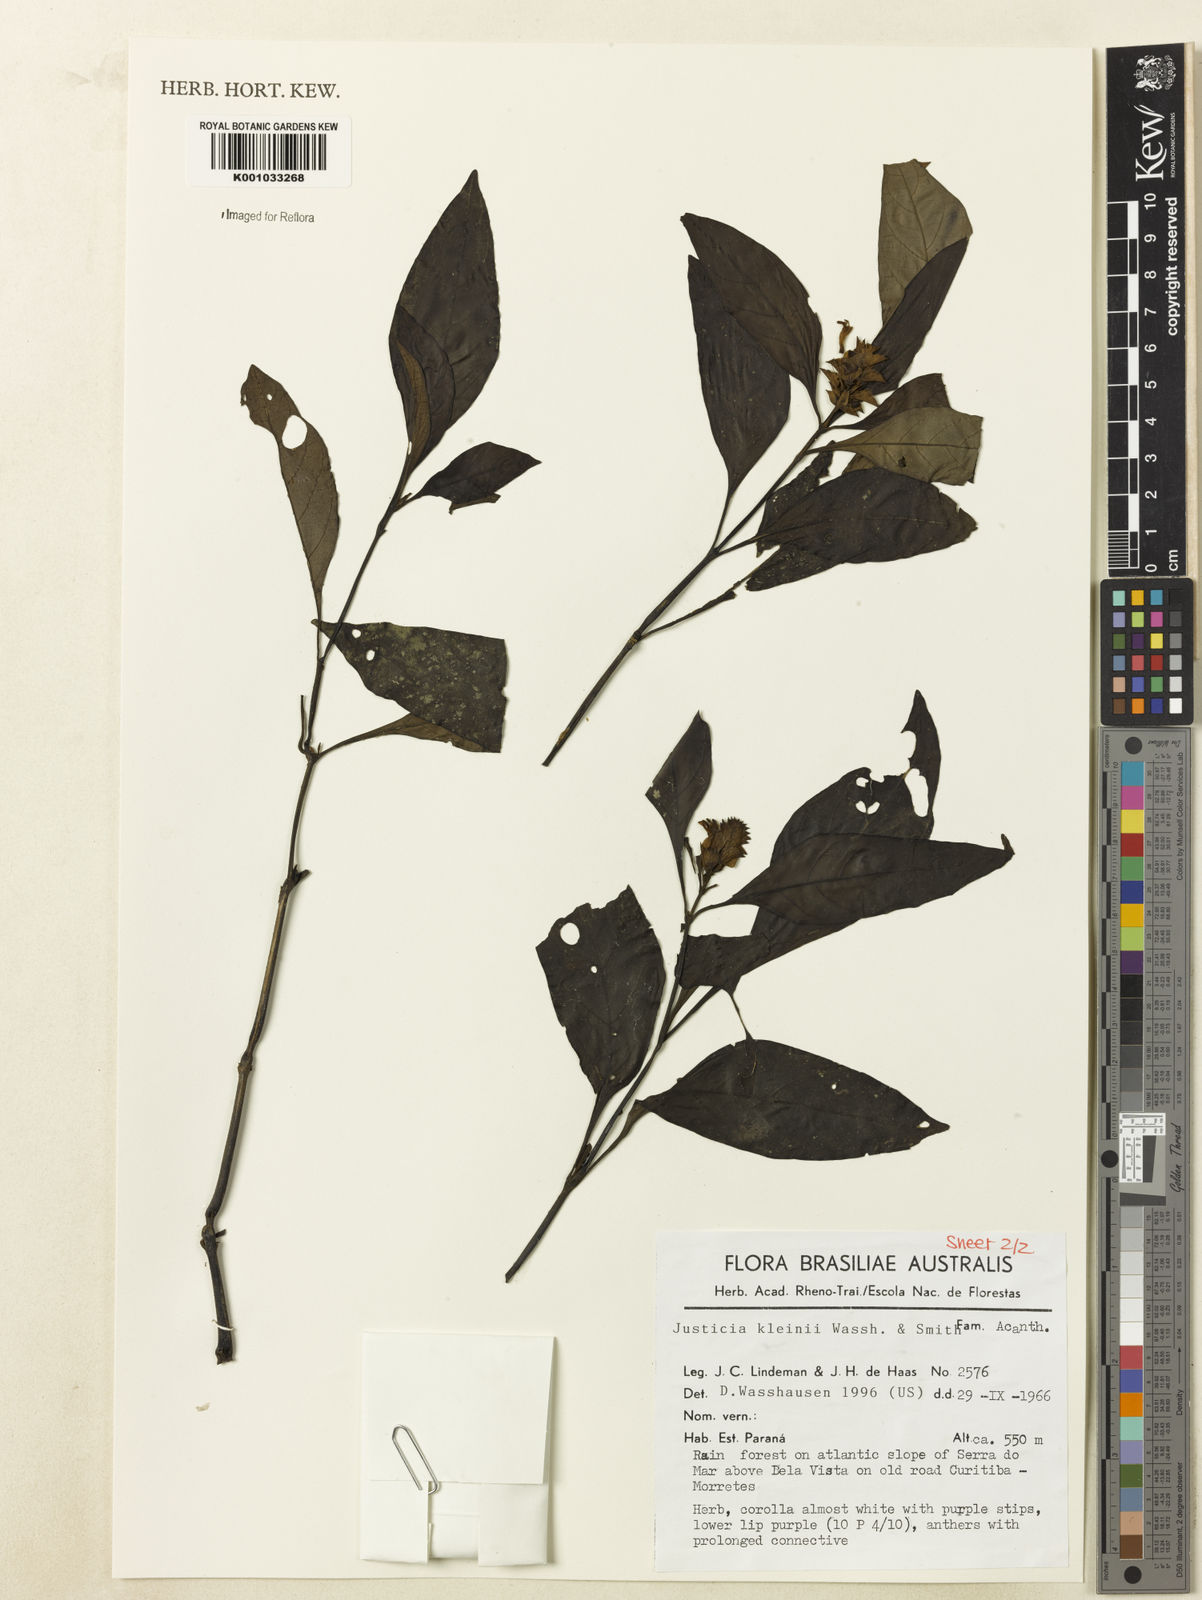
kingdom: Plantae
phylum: Tracheophyta
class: Magnoliopsida
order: Lamiales
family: Acanthaceae
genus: Justicia
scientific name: Justicia kleinii
